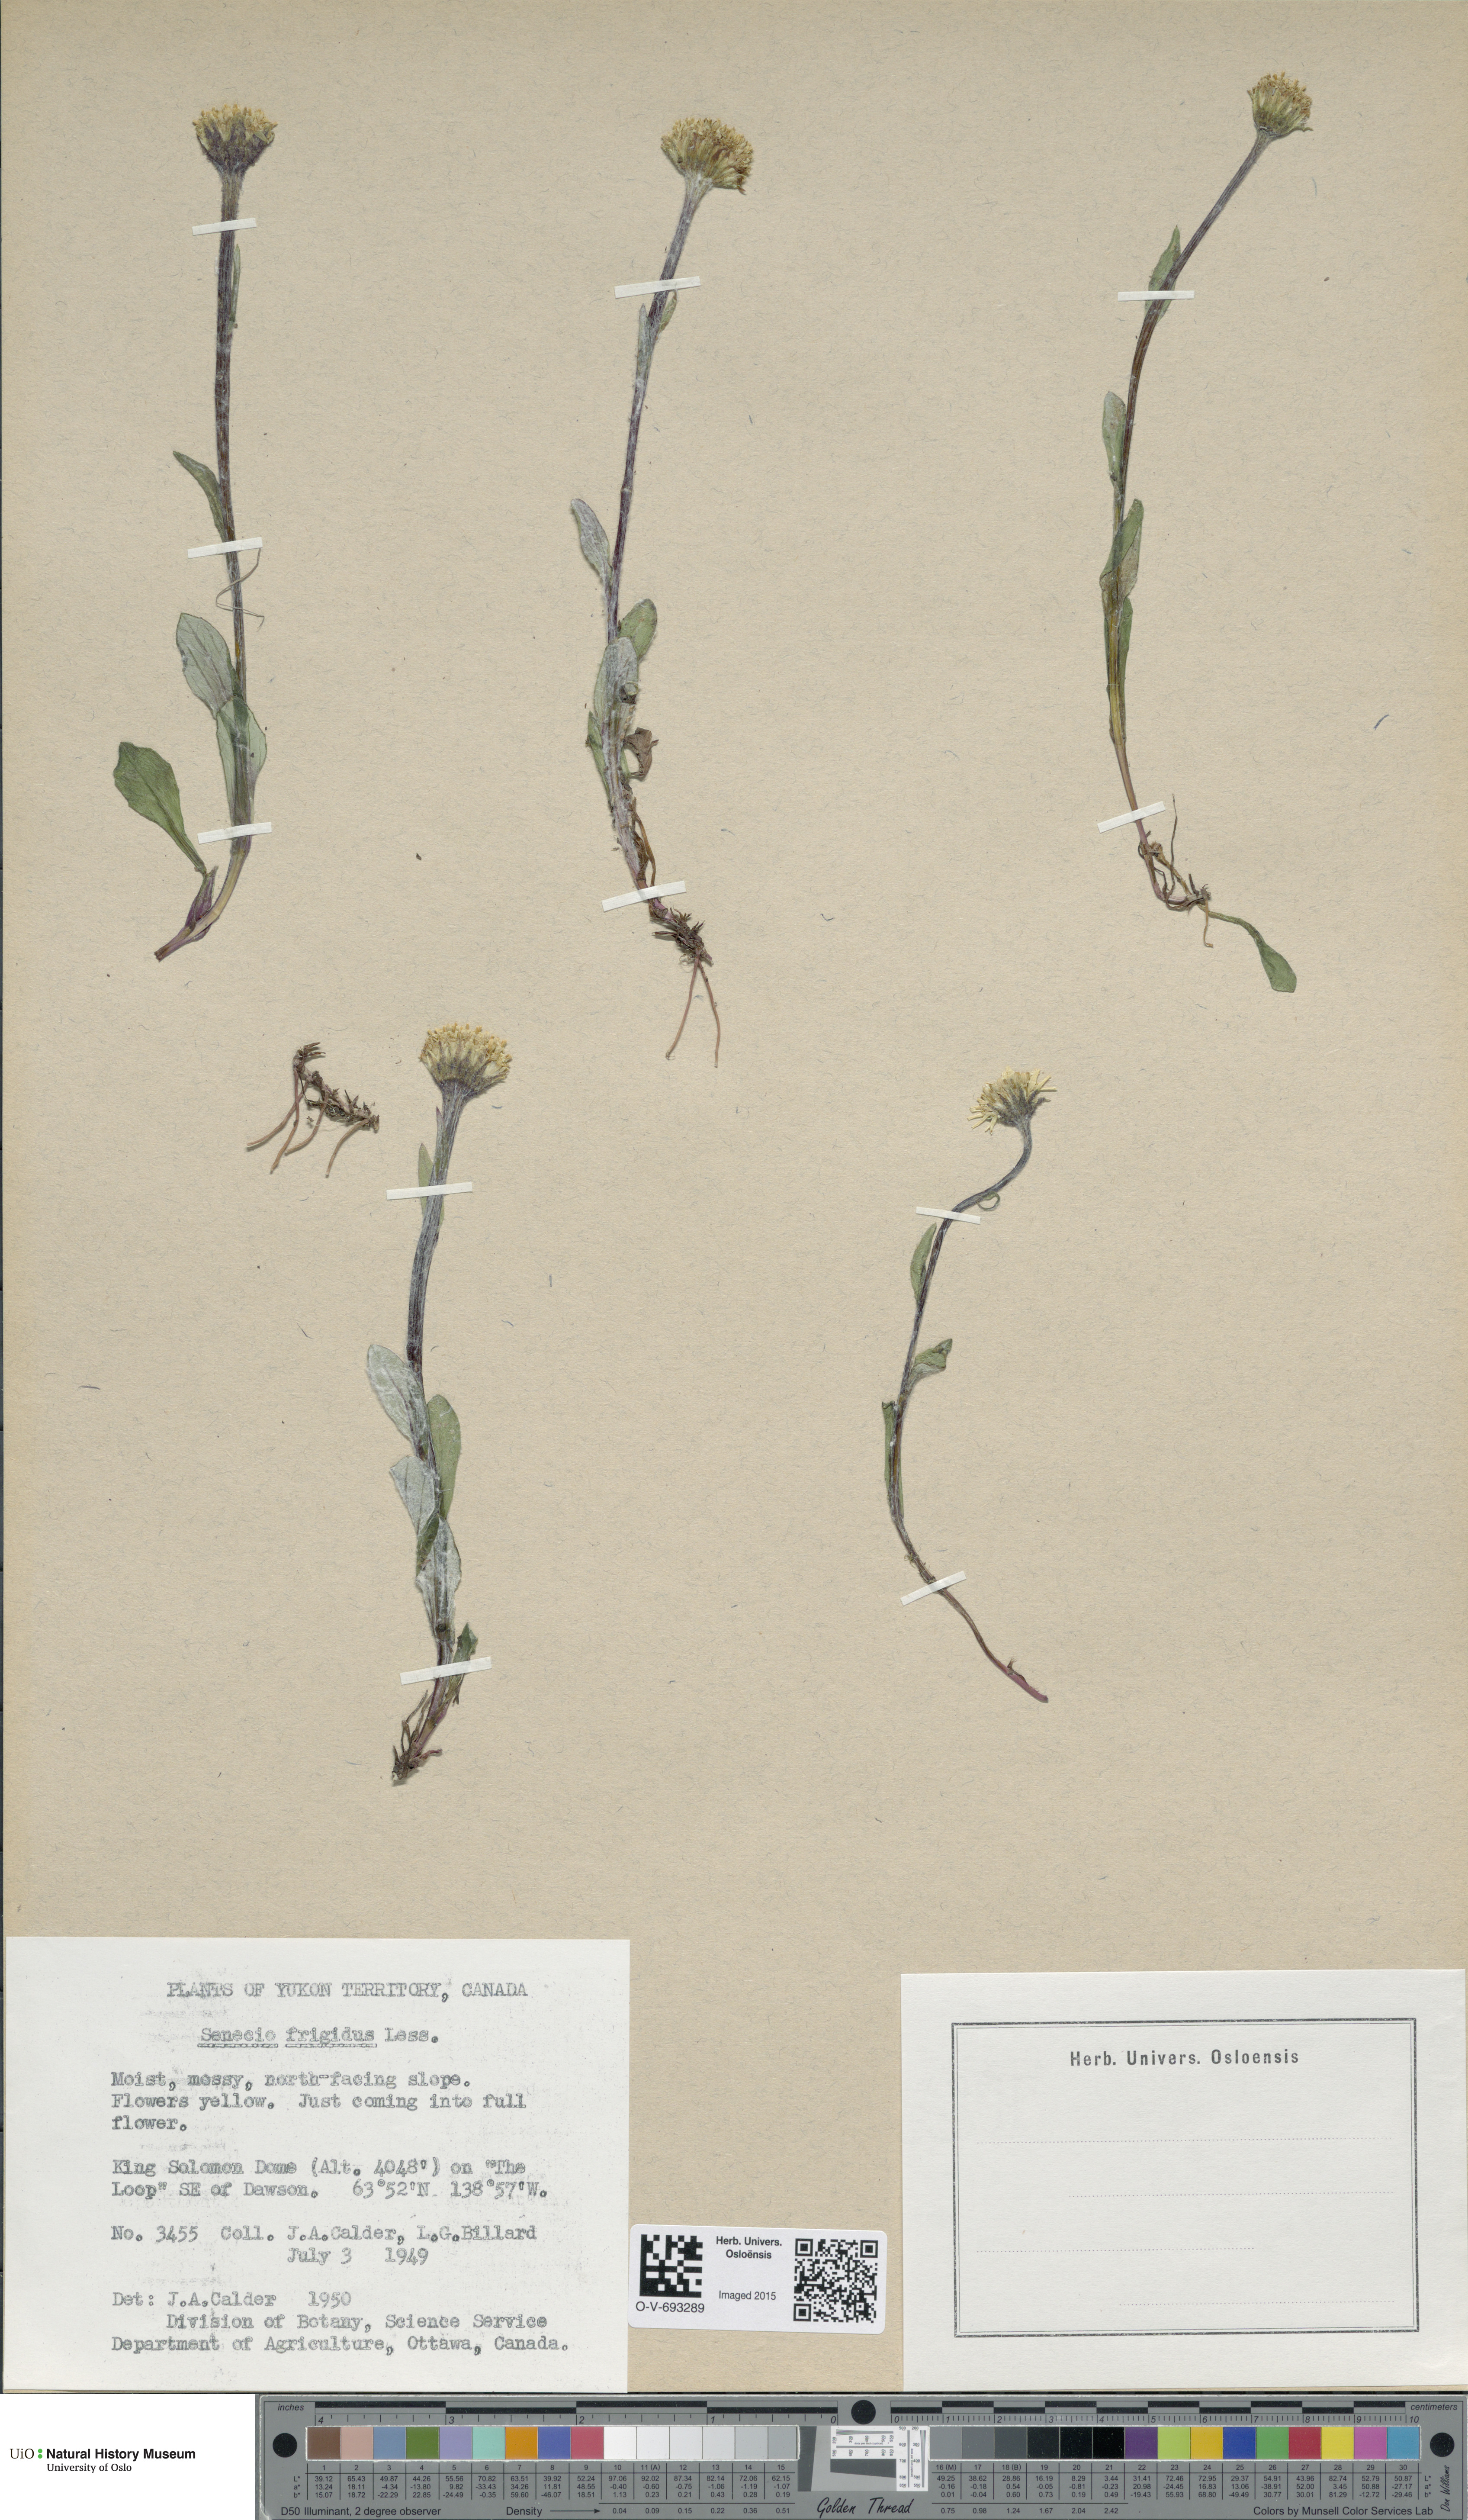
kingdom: Plantae
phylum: Tracheophyta
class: Magnoliopsida
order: Asterales
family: Asteraceae
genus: Tephroseris
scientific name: Tephroseris integrifolia
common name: Field fleawort
